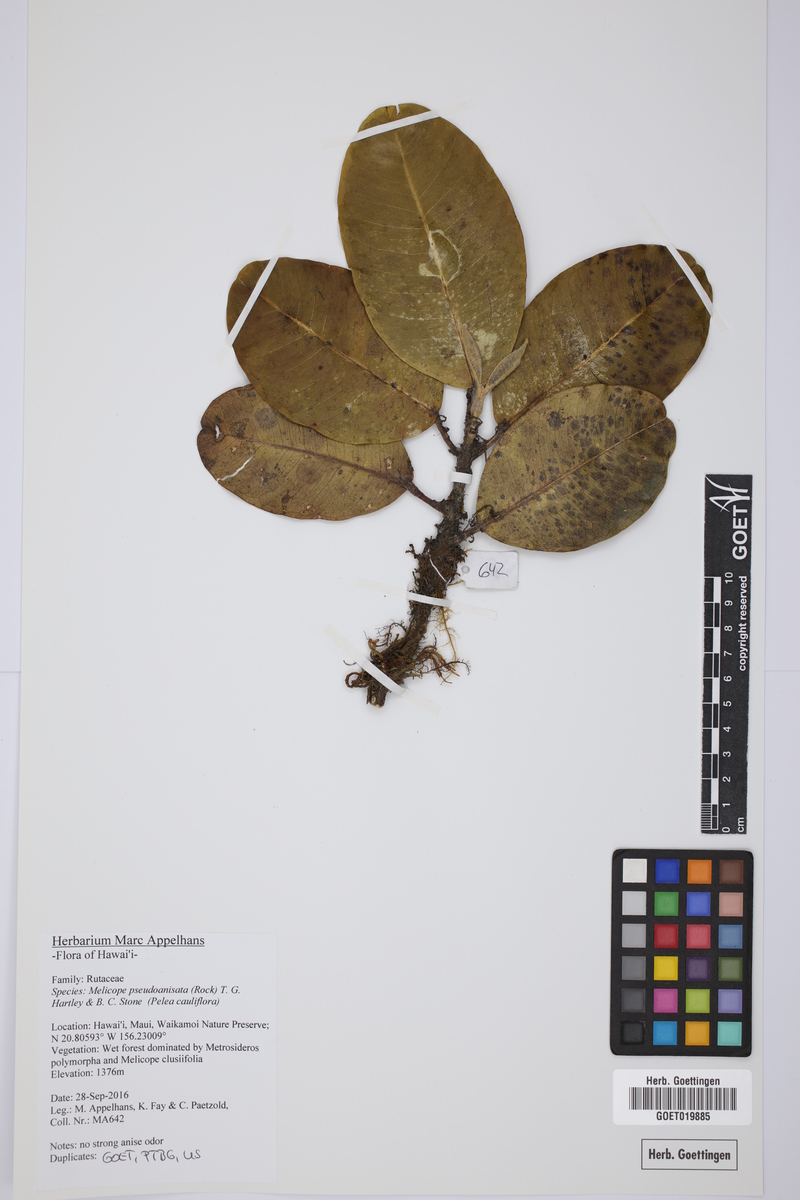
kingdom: Plantae
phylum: Tracheophyta
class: Magnoliopsida
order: Sapindales
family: Rutaceae
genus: Melicope
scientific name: Melicope pseudoanisata
